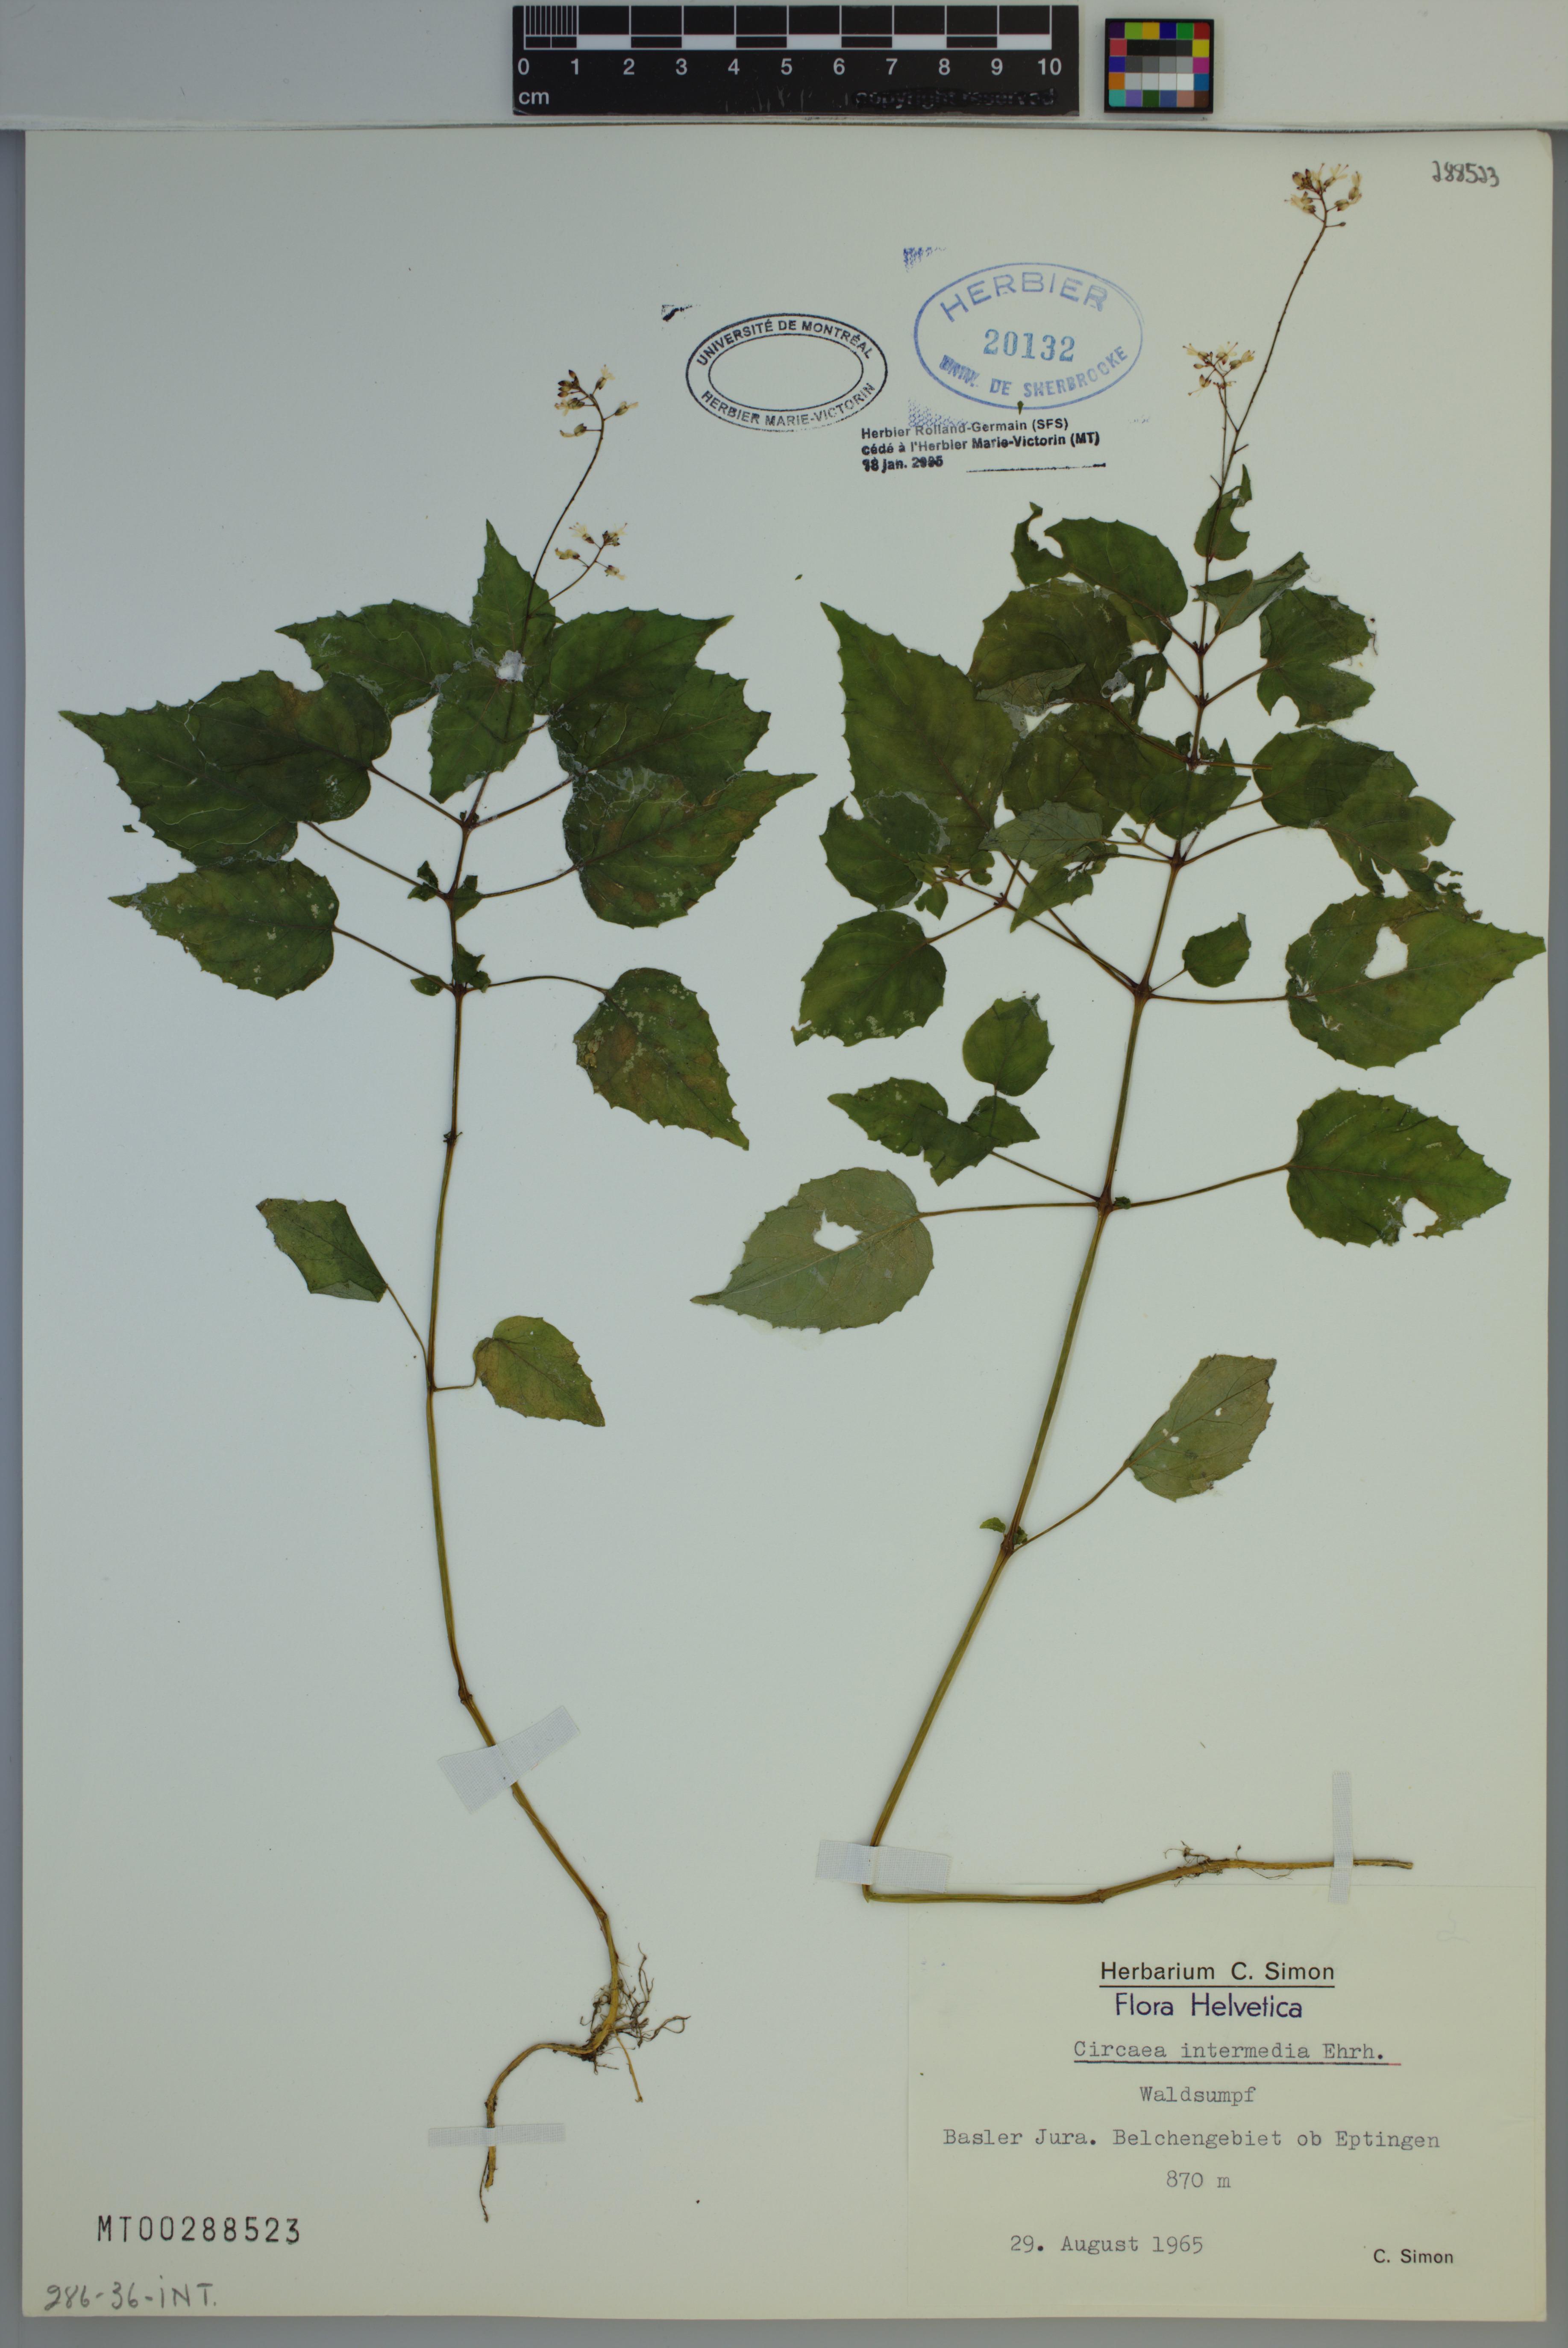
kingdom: Plantae
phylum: Tracheophyta
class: Magnoliopsida
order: Myrtales
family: Onagraceae
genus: Circaea
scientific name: Circaea sterilis
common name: Intermediate enchanter's nightshade
